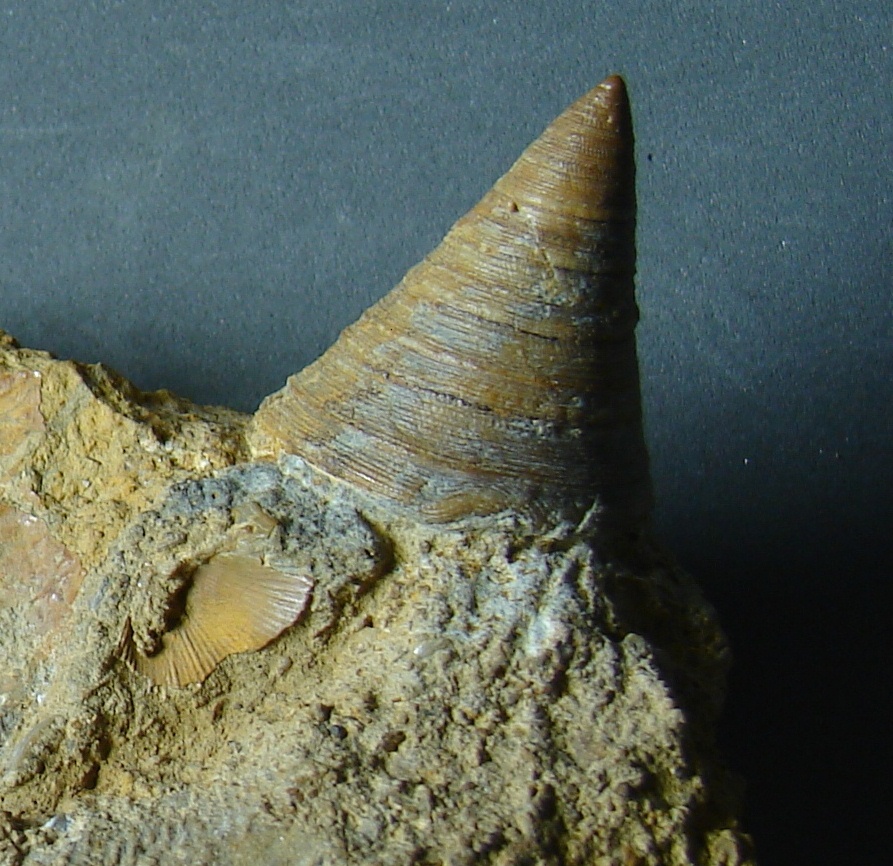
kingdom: Animalia
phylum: Mollusca
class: Gastropoda
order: Pleurotomariida
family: Pleurotomariidae
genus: Leptomaria
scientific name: Leptomaria Trochus punctatus
